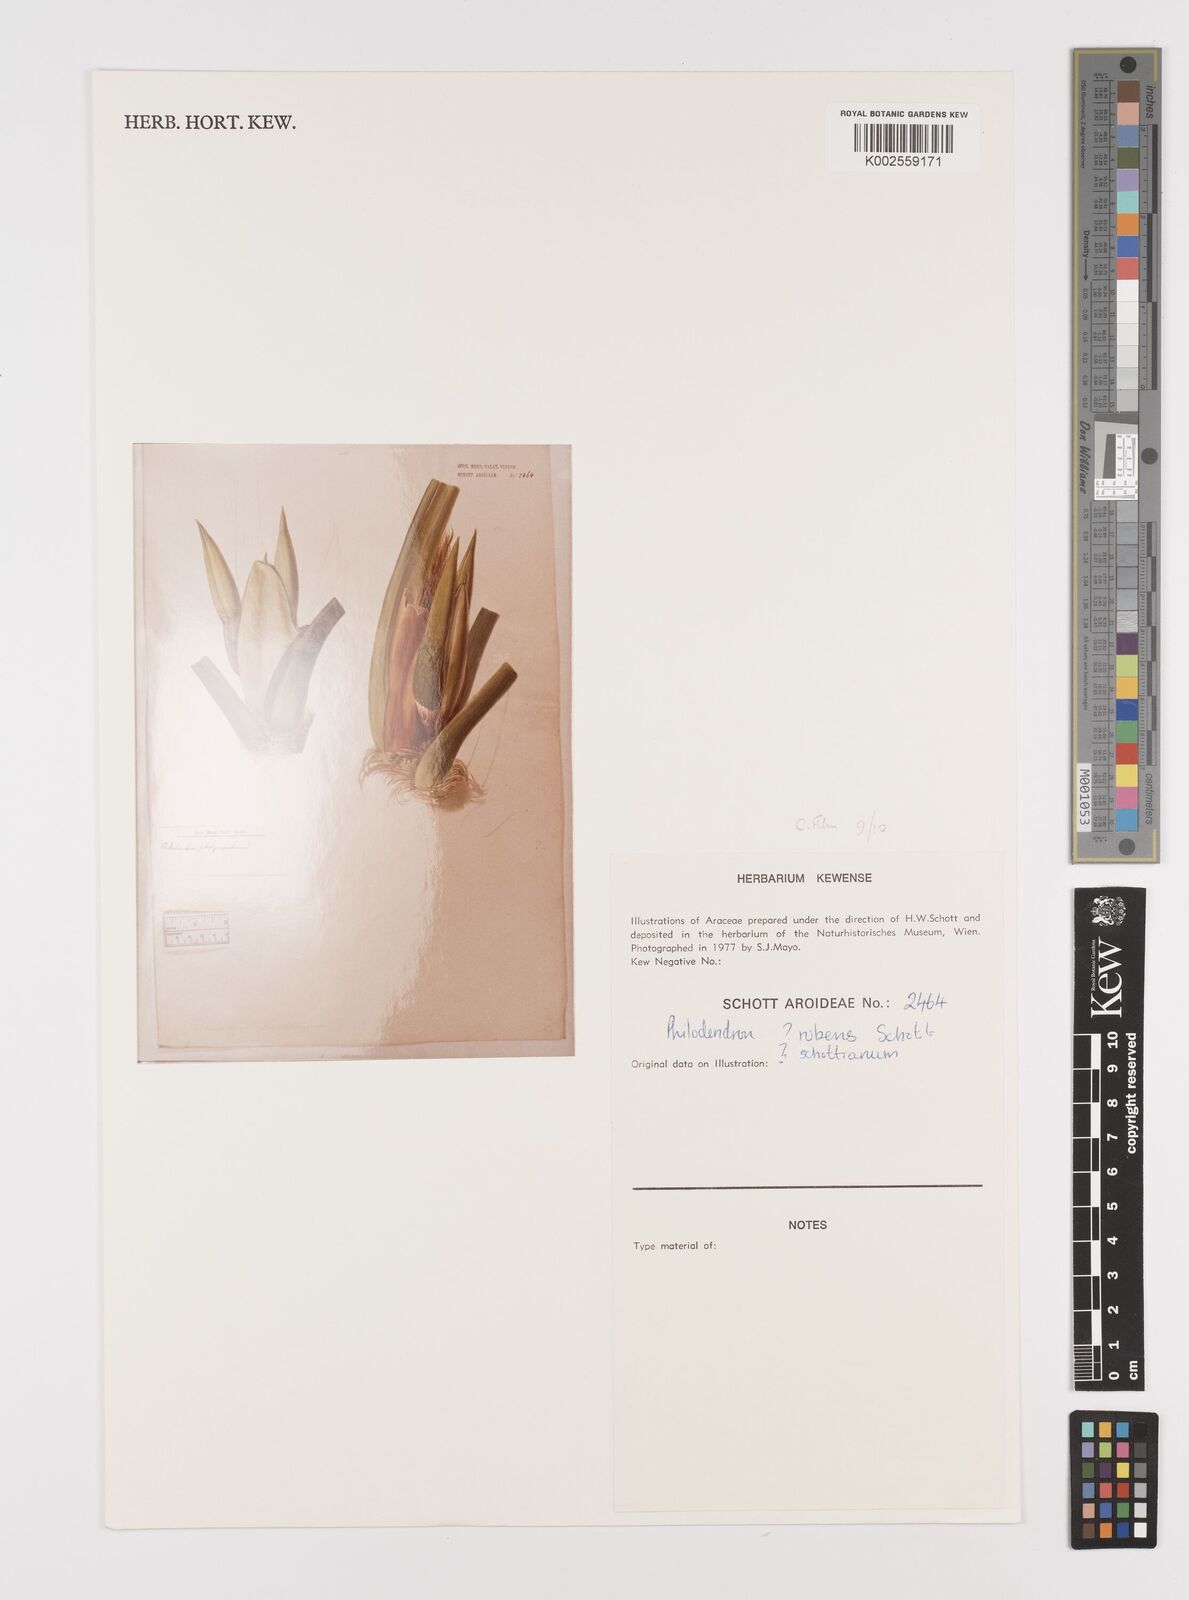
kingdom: Plantae
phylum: Tracheophyta
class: Liliopsida
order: Alismatales
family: Araceae
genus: Philodendron
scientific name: Philodendron ornatum
